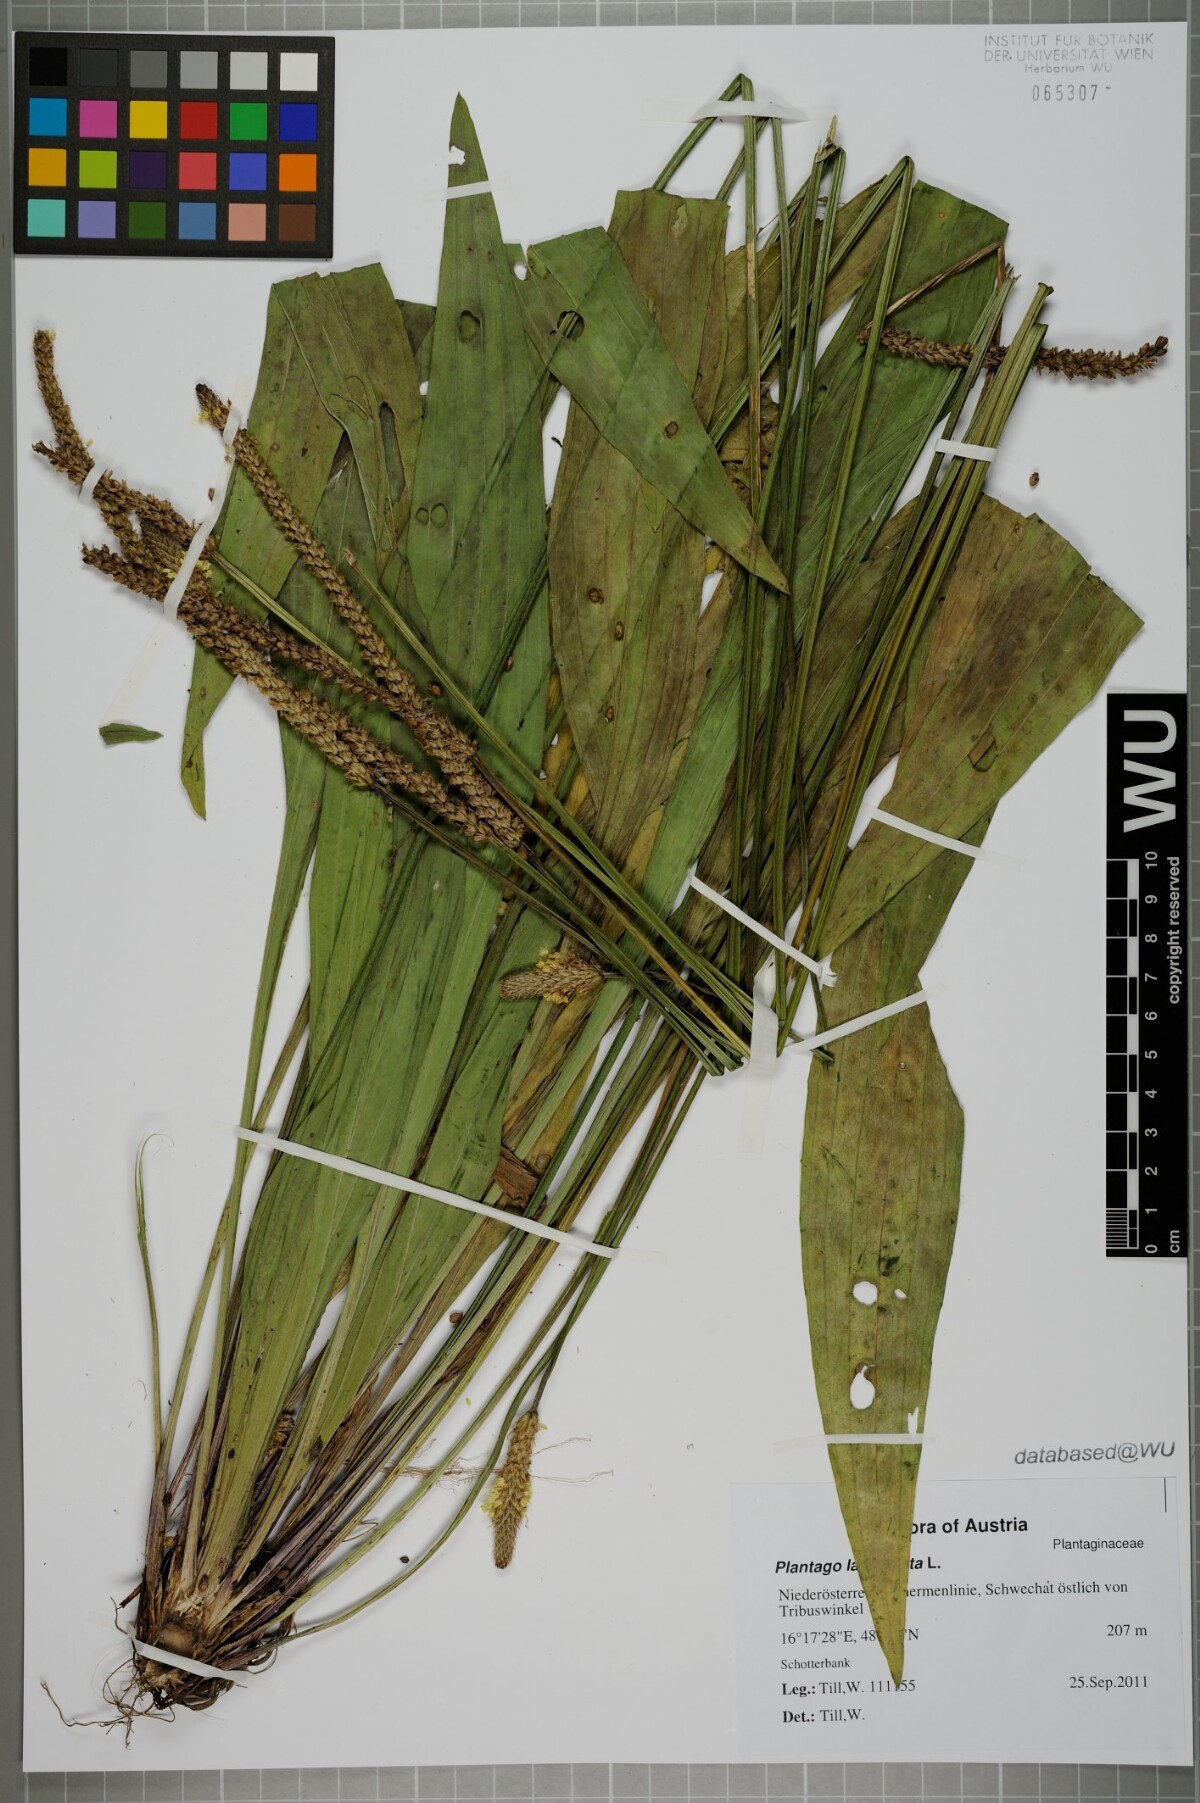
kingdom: Plantae
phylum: Tracheophyta
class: Magnoliopsida
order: Lamiales
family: Plantaginaceae
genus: Plantago
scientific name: Plantago lanceolata
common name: Ribwort plantain
